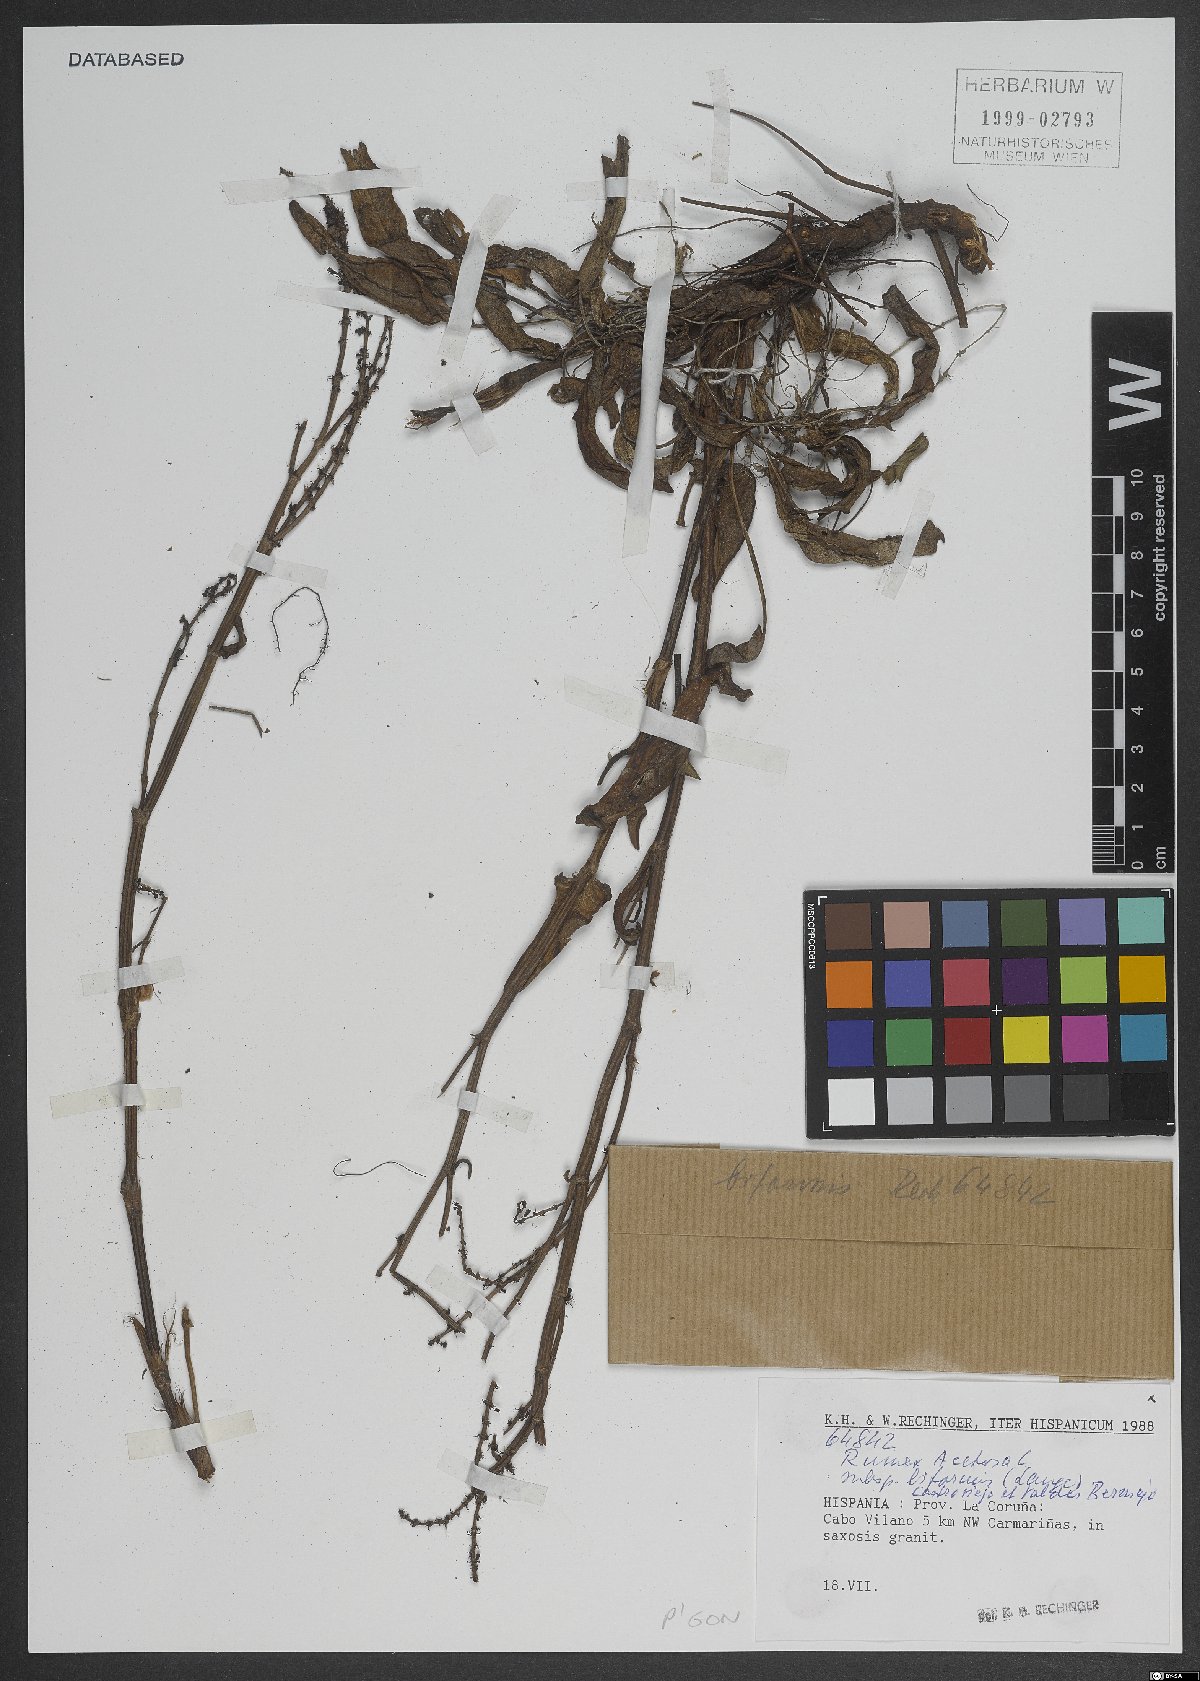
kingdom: Plantae
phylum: Tracheophyta
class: Magnoliopsida
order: Caryophyllales
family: Polygonaceae
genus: Rumex
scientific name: Rumex acetosa
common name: Garden sorrel
